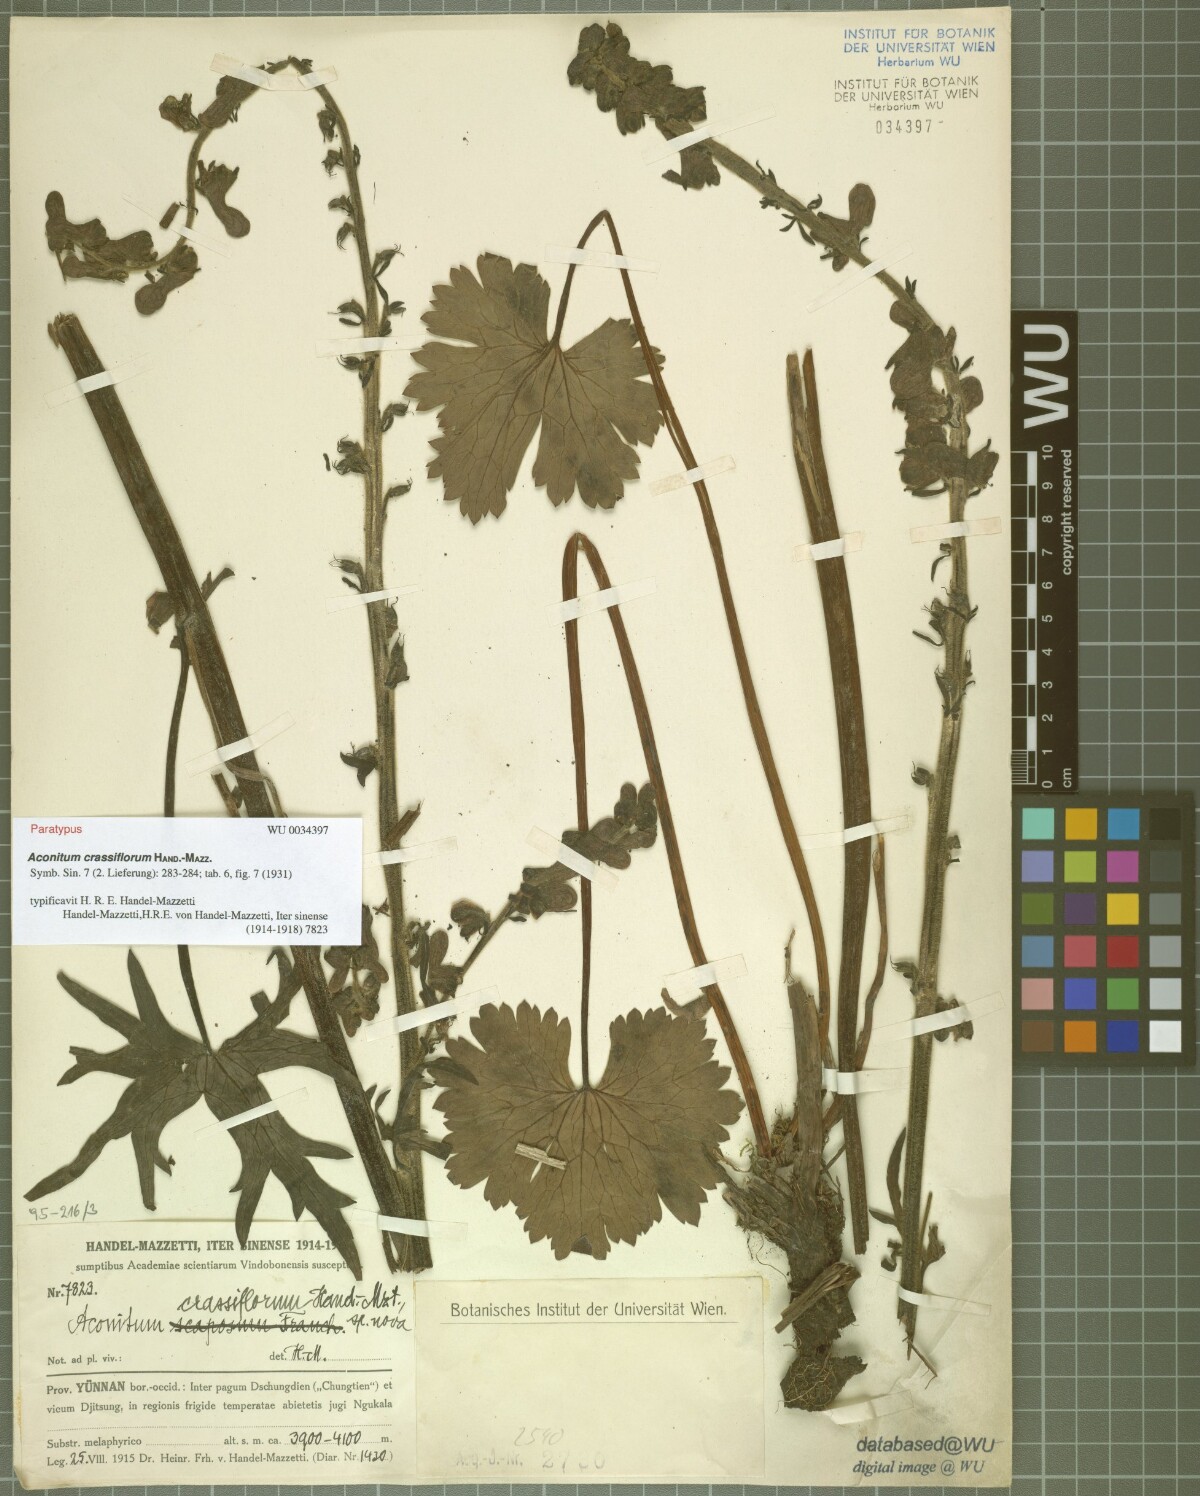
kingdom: Plantae
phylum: Tracheophyta
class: Magnoliopsida
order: Ranunculales
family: Ranunculaceae
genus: Aconitum
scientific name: Aconitum crassiflorum
